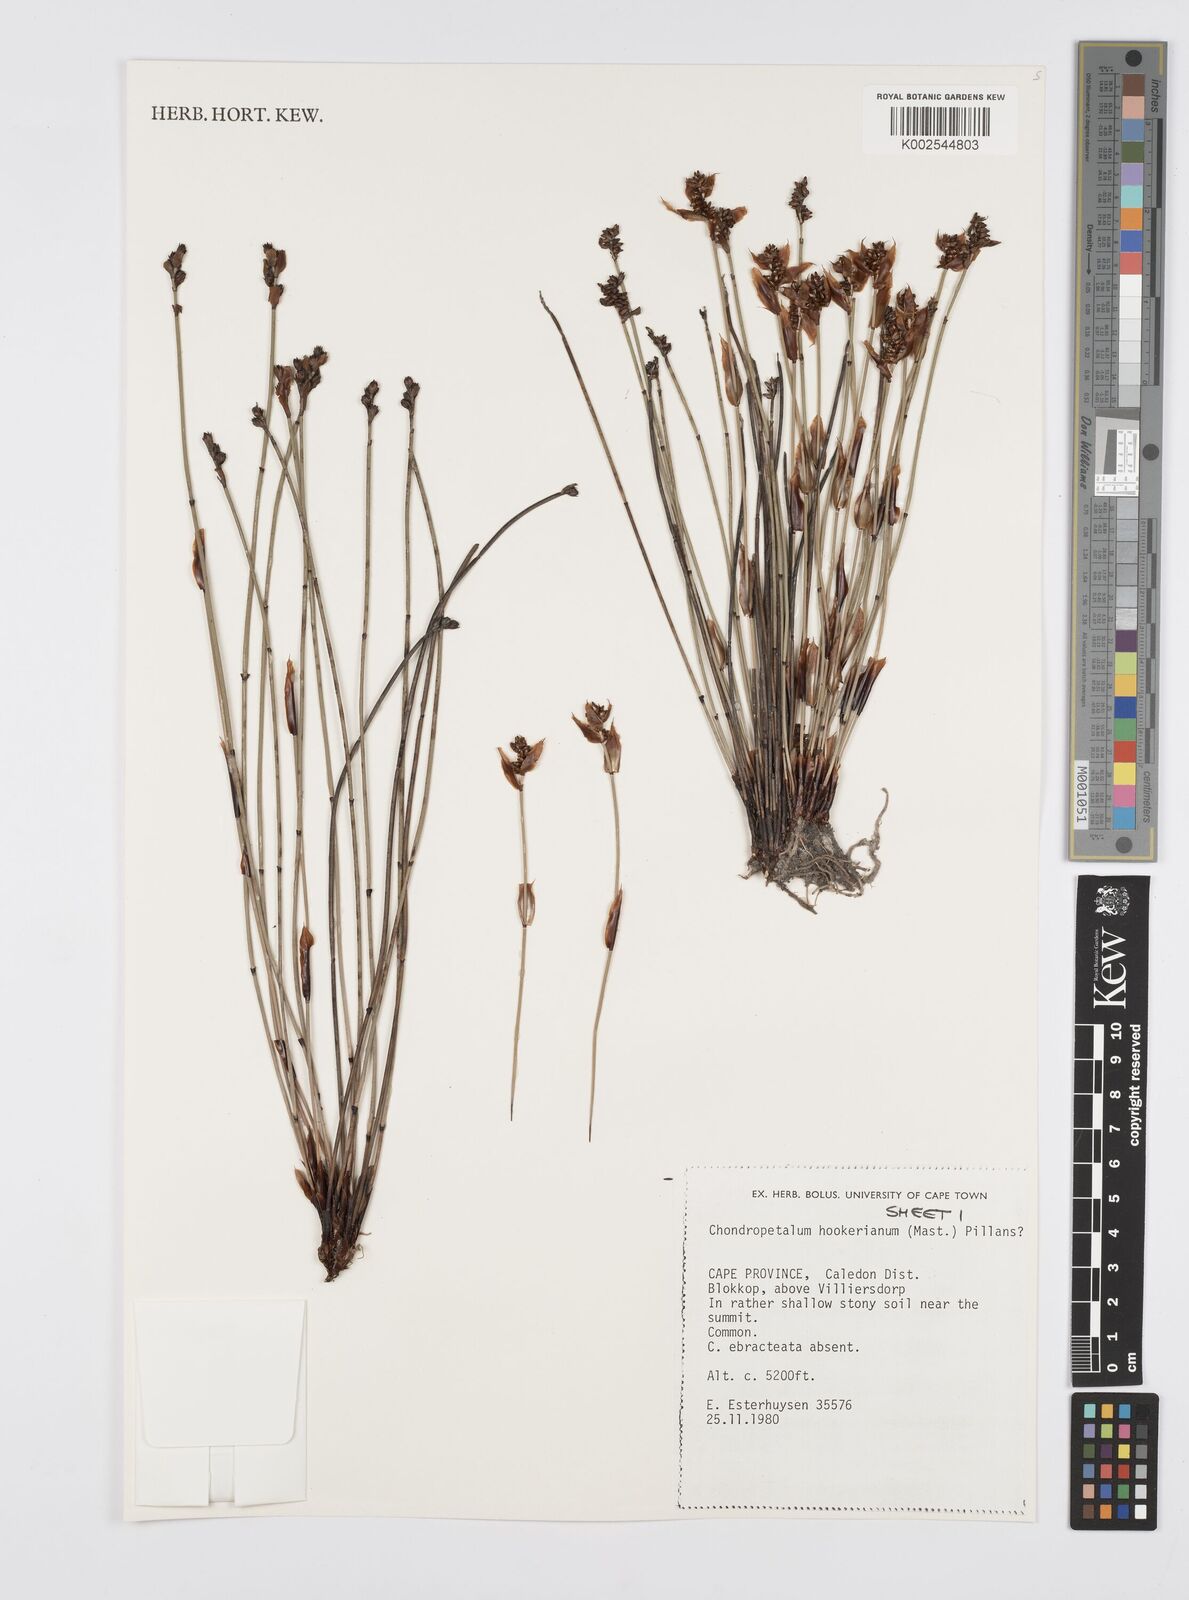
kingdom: Plantae
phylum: Tracheophyta
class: Liliopsida
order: Poales
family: Restionaceae
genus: Elegia
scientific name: Elegia hookeriana
